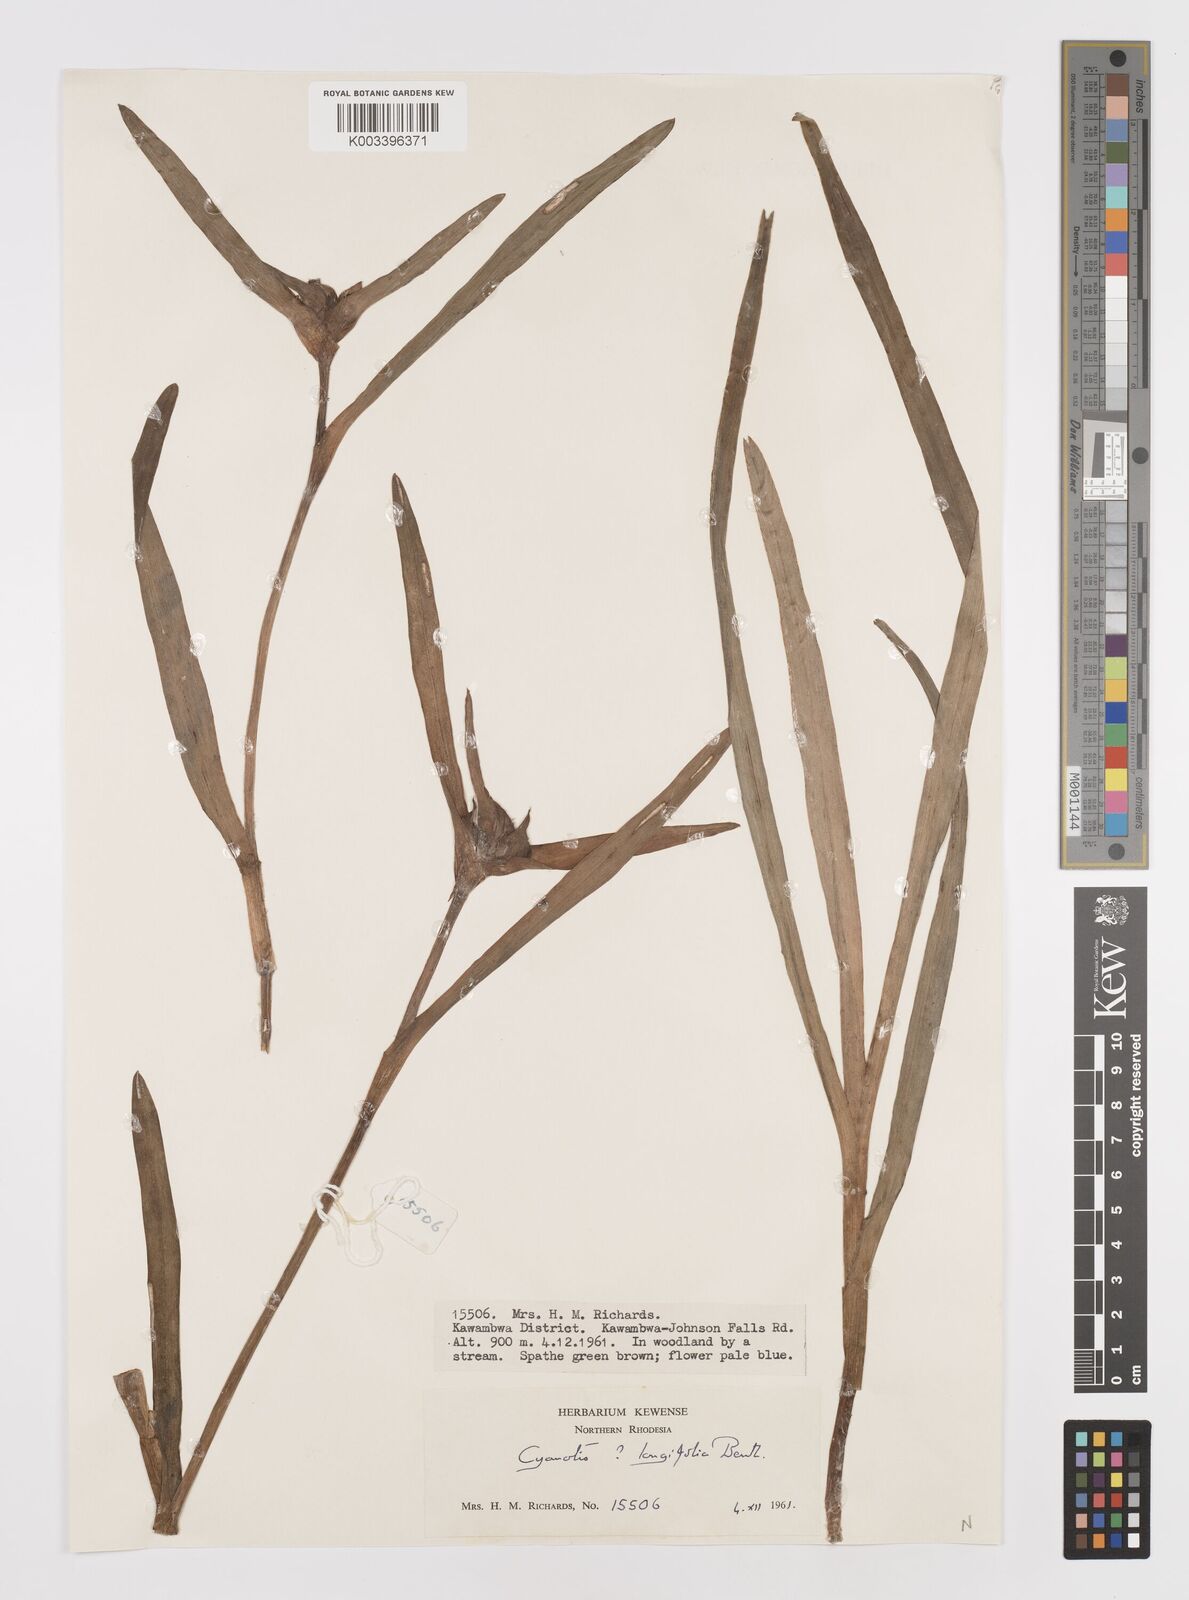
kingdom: Plantae
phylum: Tracheophyta
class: Liliopsida
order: Commelinales
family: Commelinaceae
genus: Cyanotis
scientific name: Cyanotis longifolia
